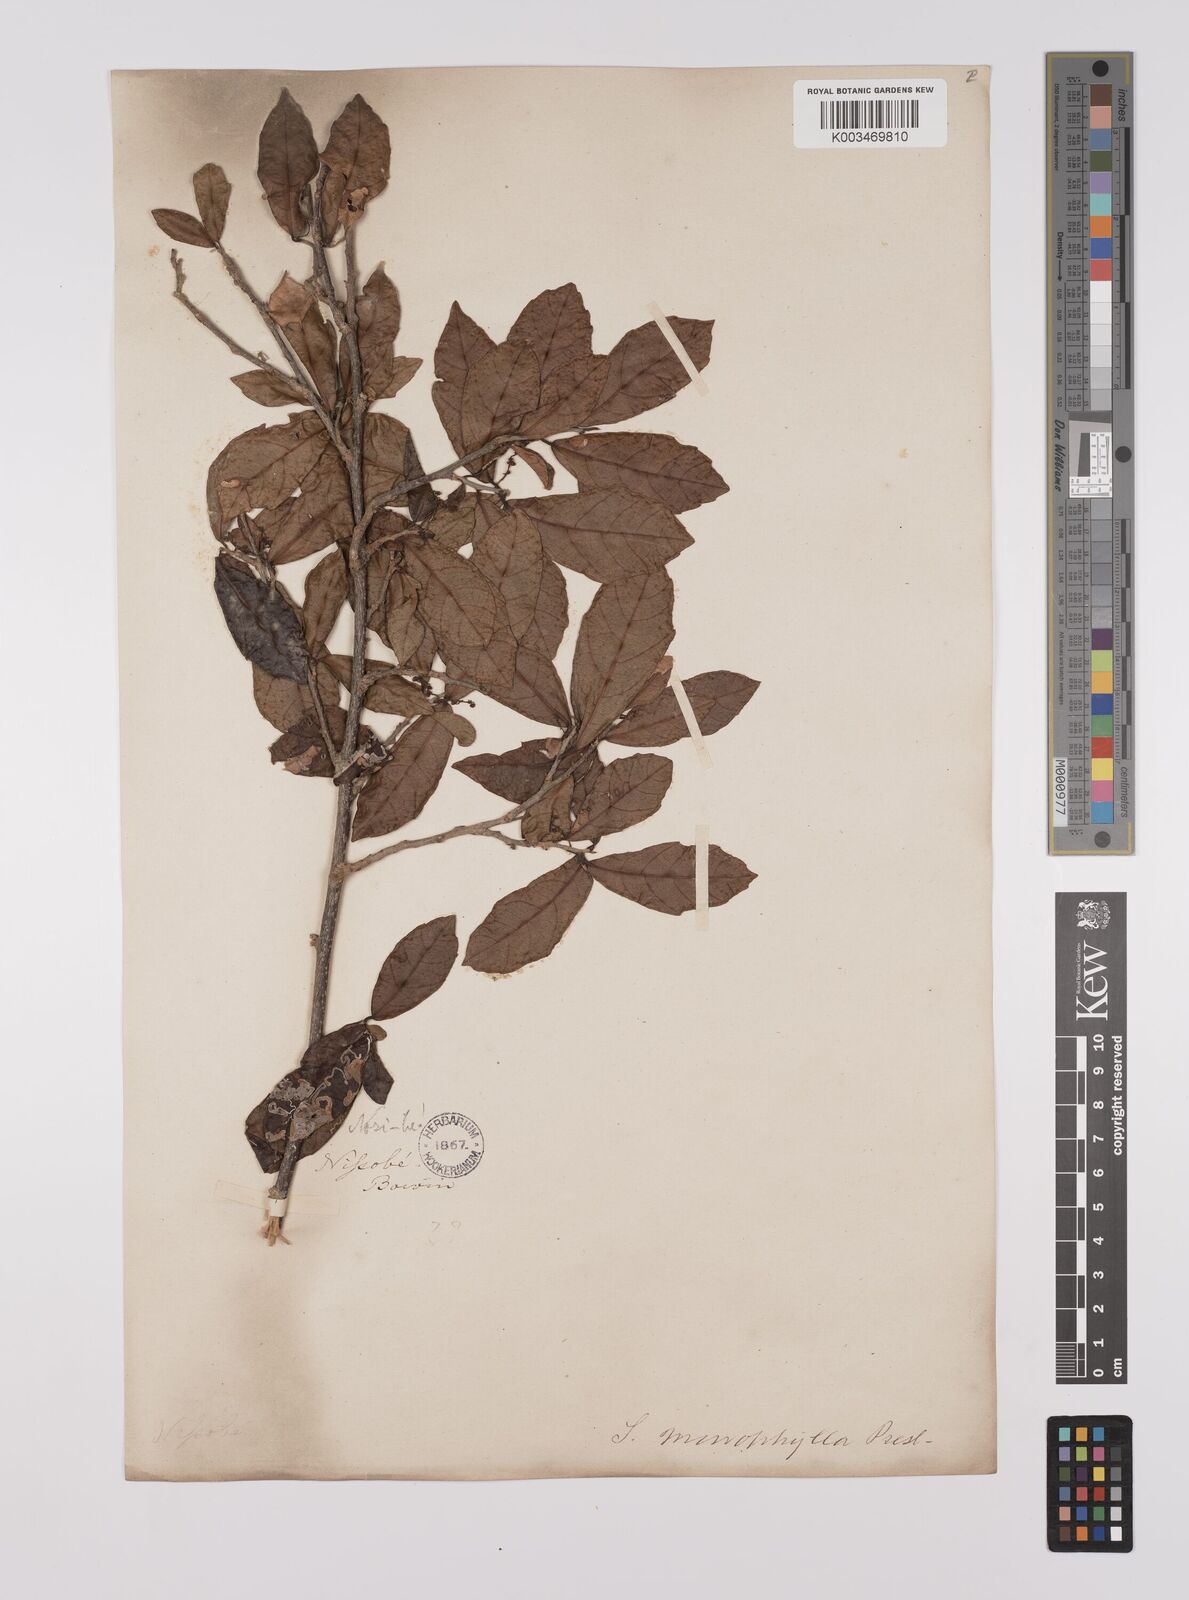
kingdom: Plantae
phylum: Tracheophyta
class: Magnoliopsida
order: Sapindales
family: Sapindaceae
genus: Allophylus
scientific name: Allophylus pervillei
